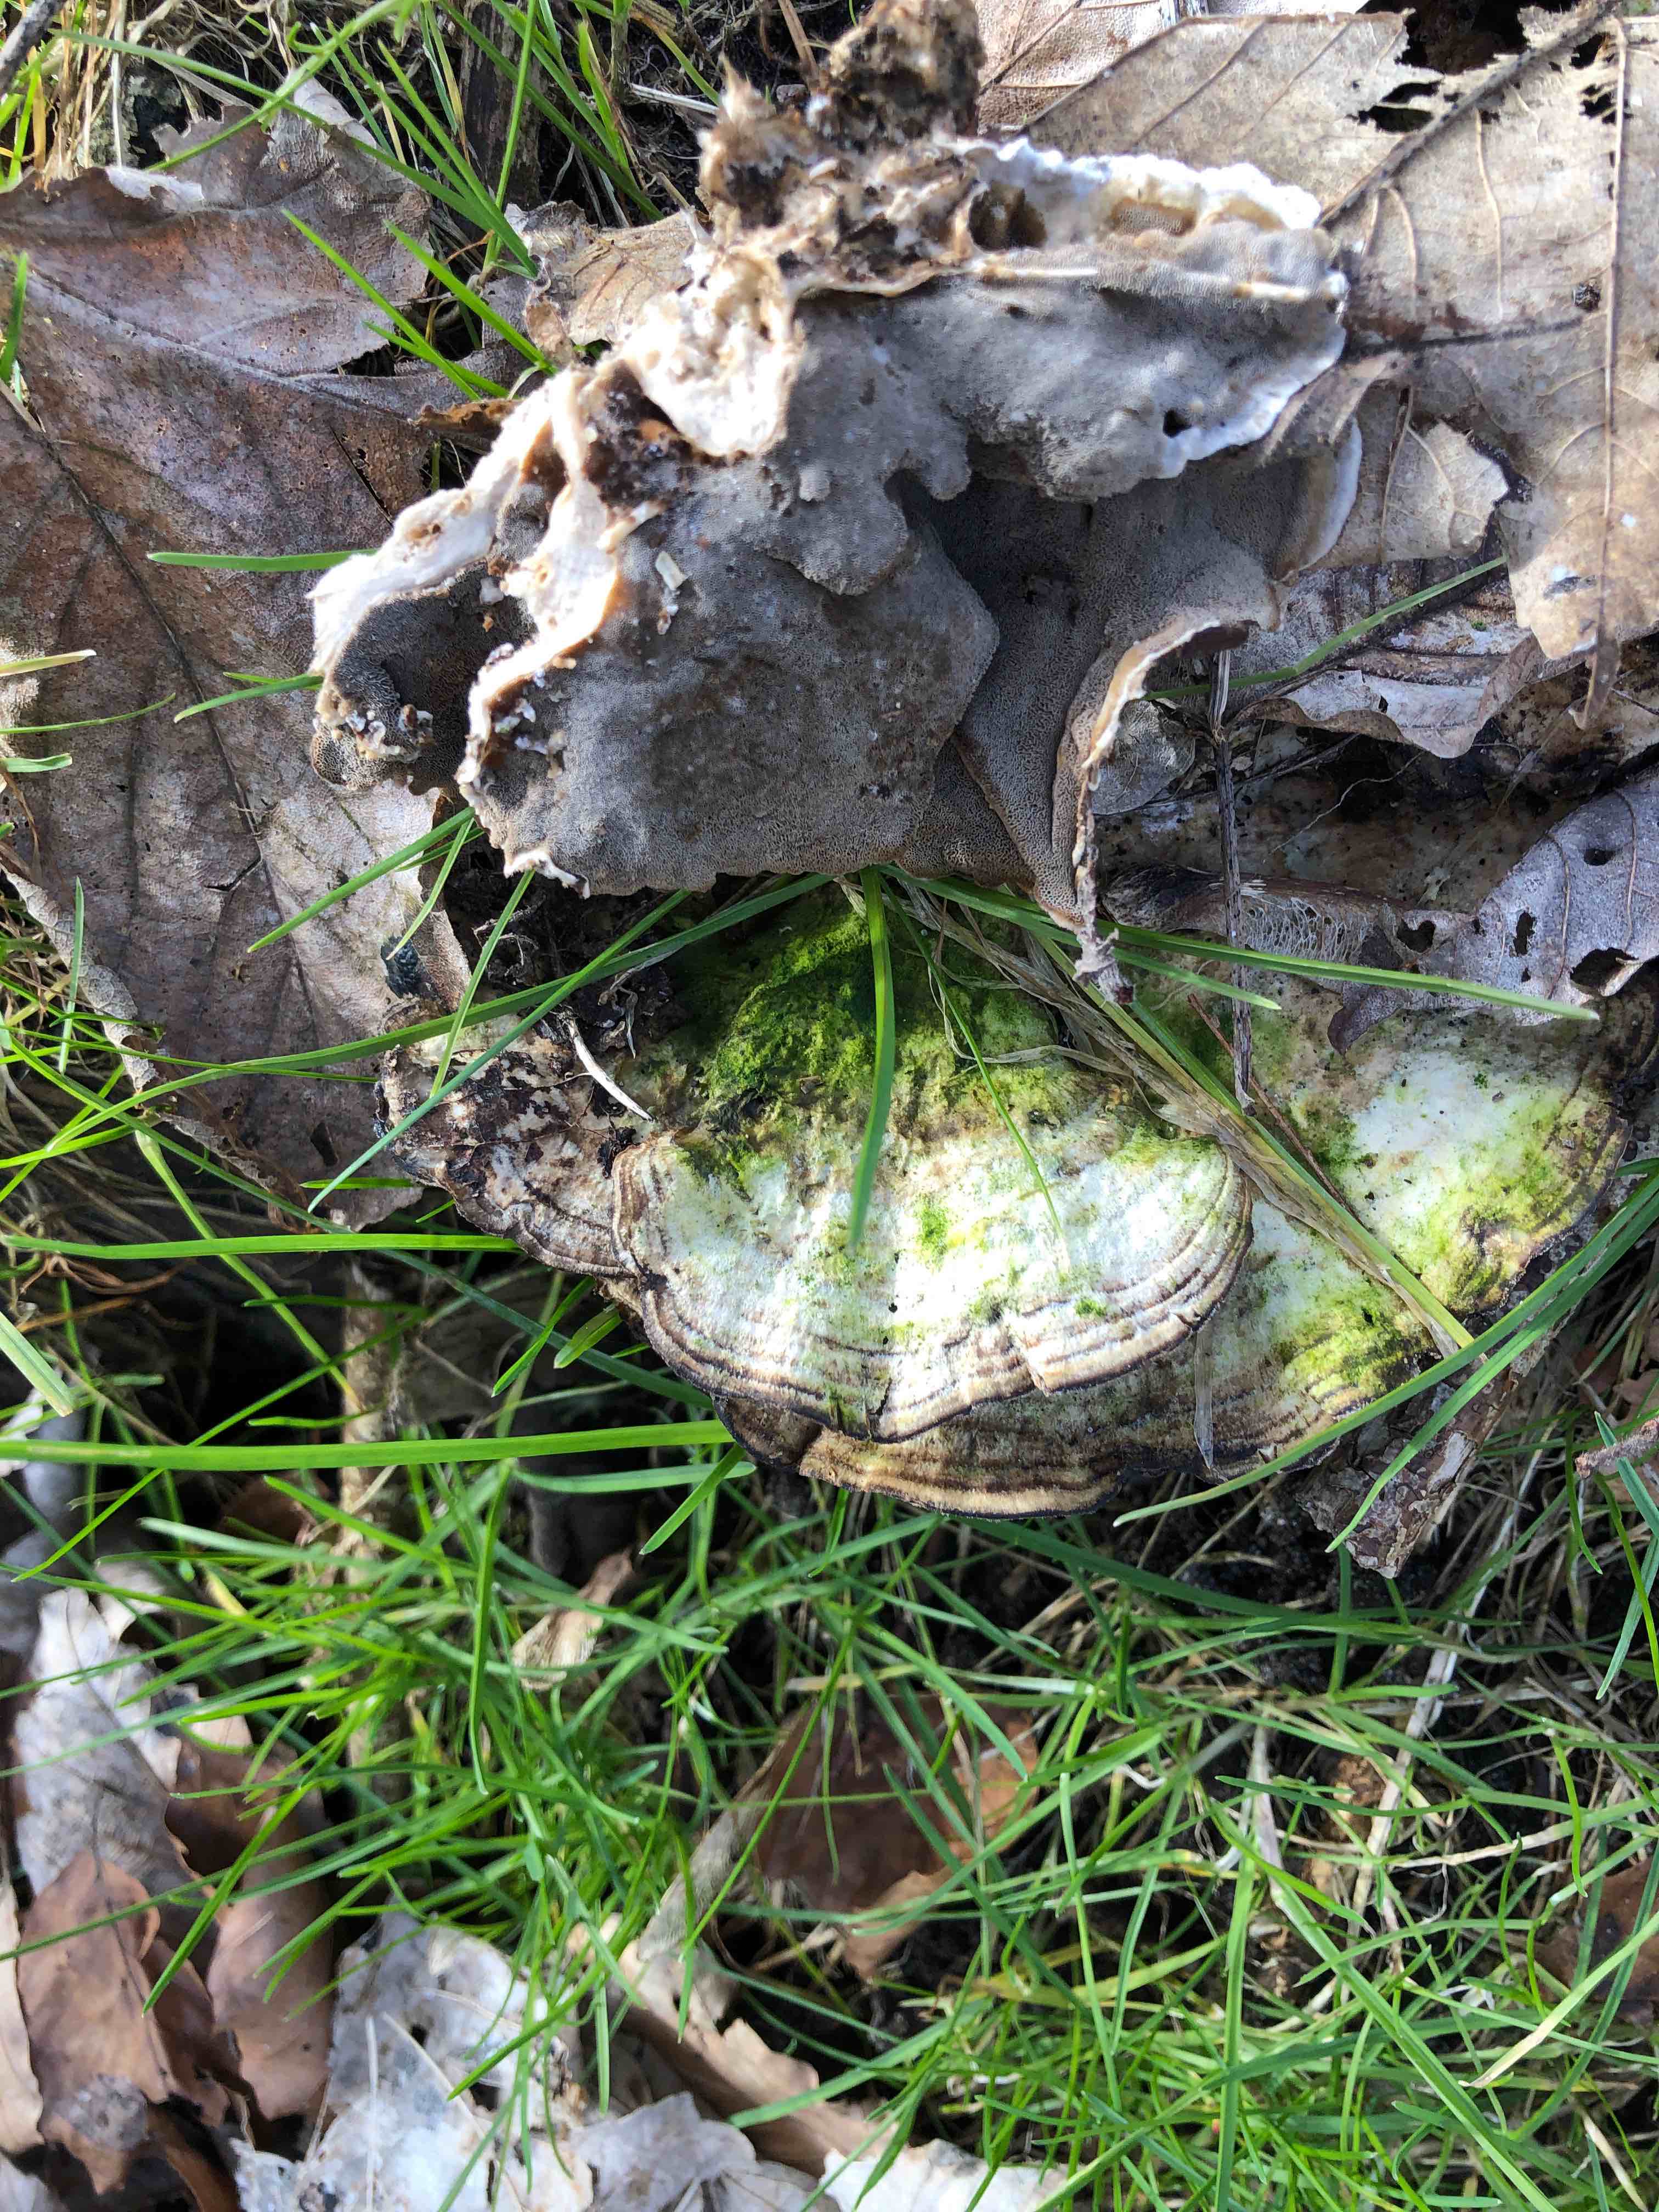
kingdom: Fungi
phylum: Basidiomycota
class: Agaricomycetes
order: Polyporales
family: Phanerochaetaceae
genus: Bjerkandera
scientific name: Bjerkandera adusta
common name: sveden sodporesvamp
